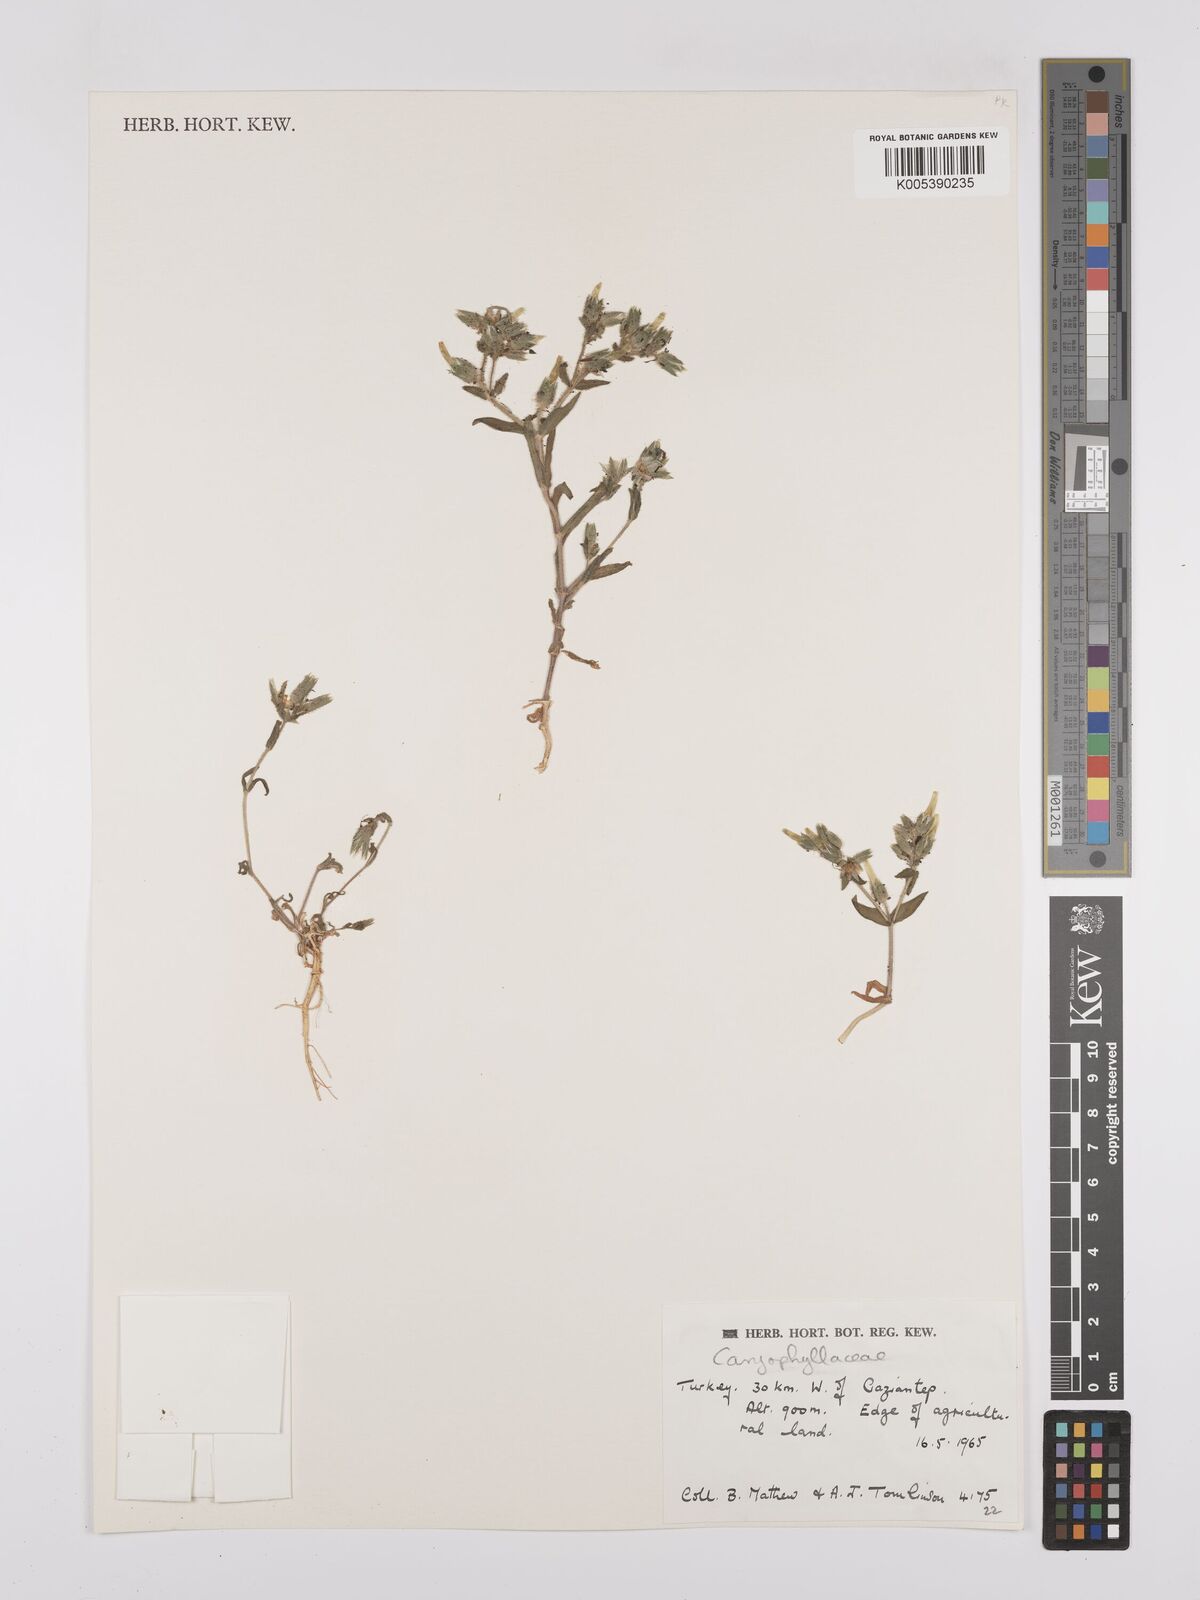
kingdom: Plantae
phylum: Tracheophyta
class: Magnoliopsida
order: Caryophyllales
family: Caryophyllaceae
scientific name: Caryophyllaceae
